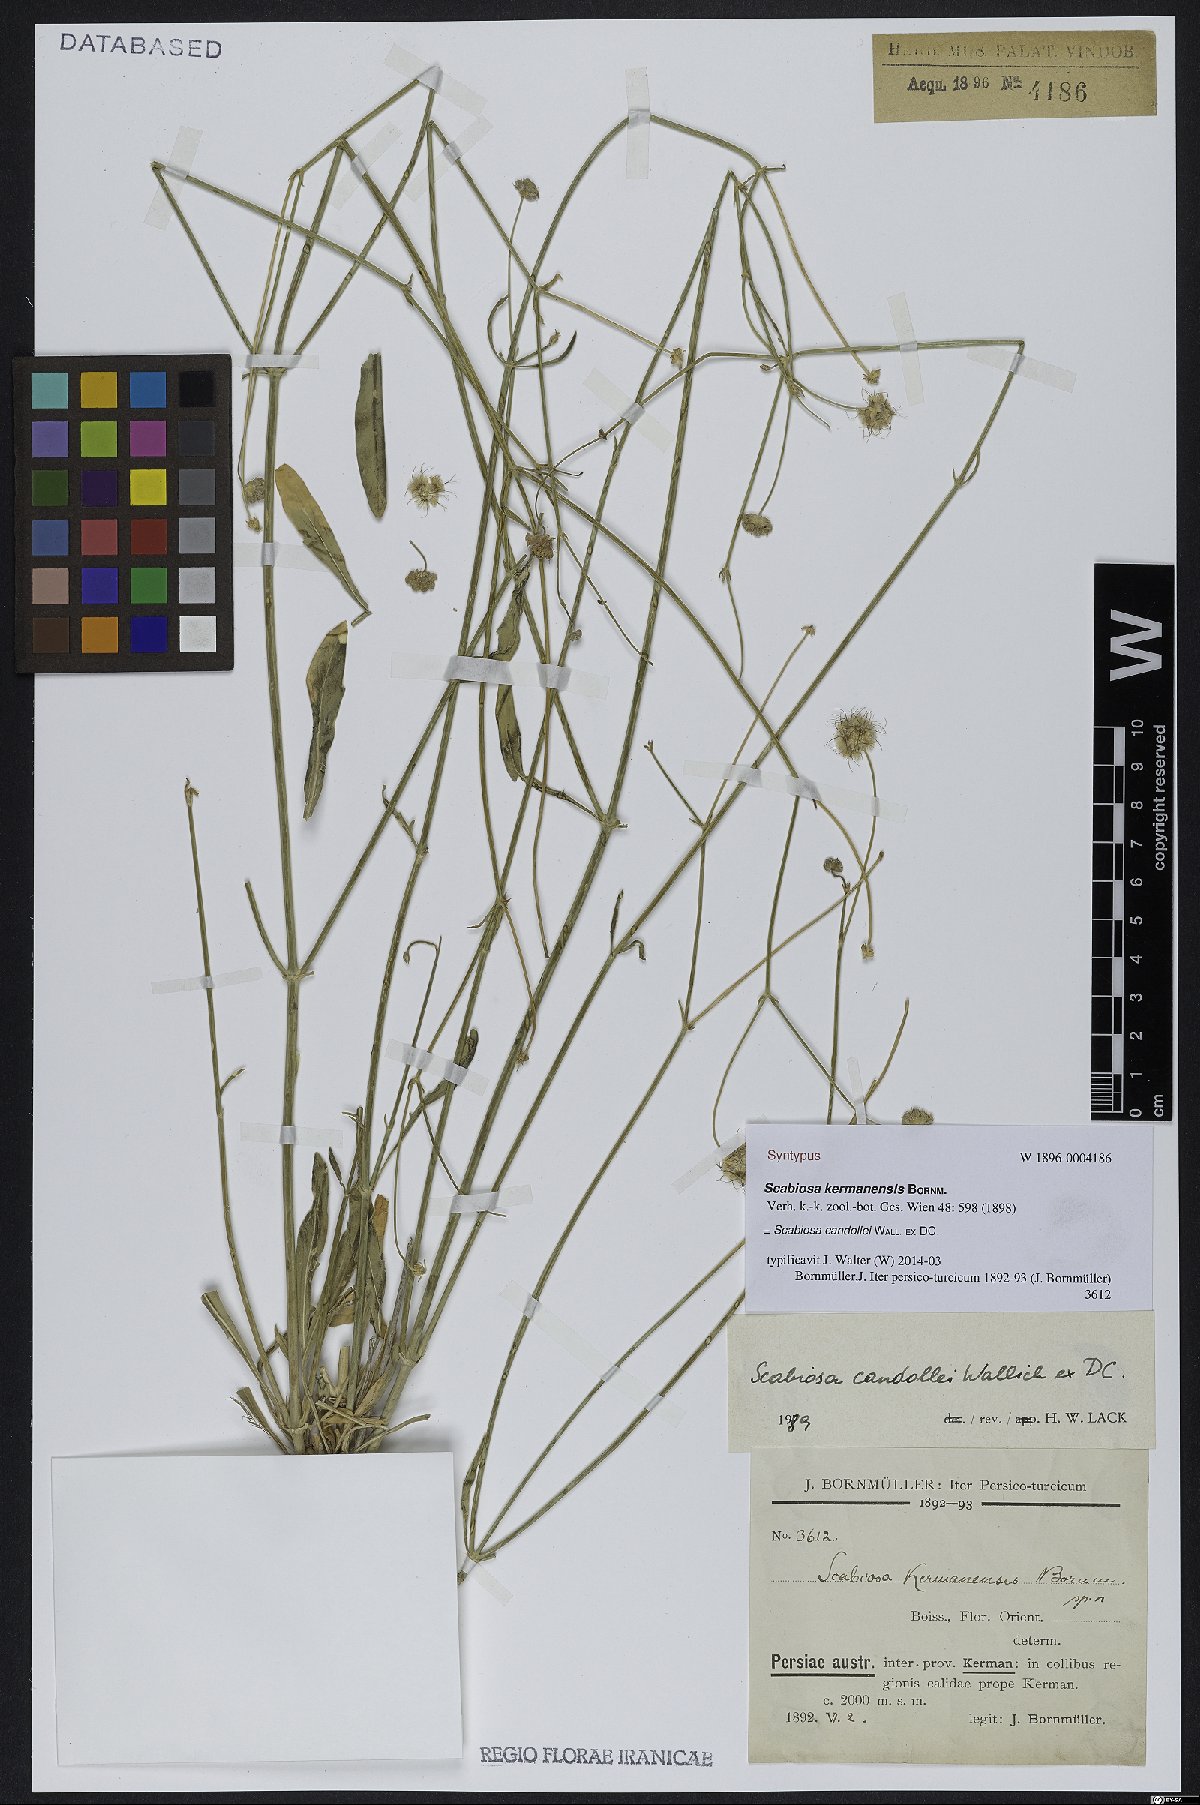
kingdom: Plantae
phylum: Tracheophyta
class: Magnoliopsida
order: Dipsacales
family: Caprifoliaceae
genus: Lomelosia
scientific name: Lomelosia candollei
